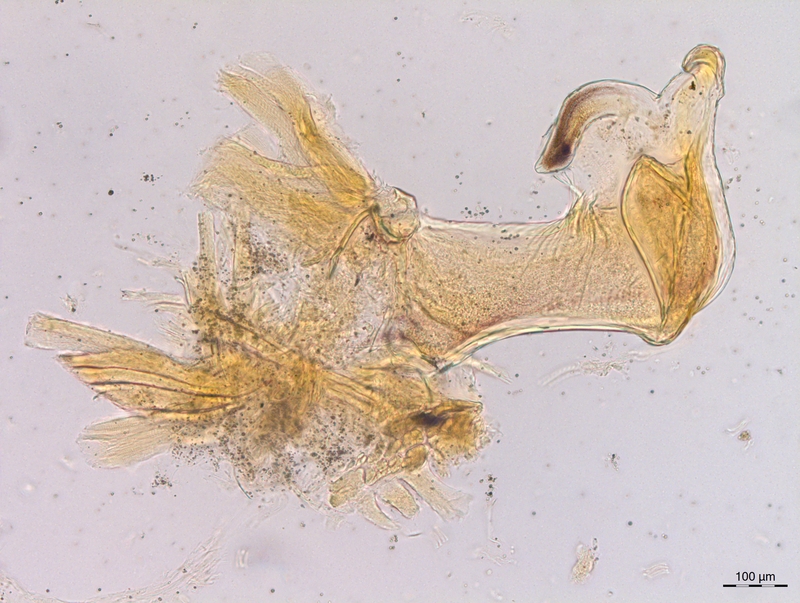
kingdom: Animalia
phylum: Arthropoda
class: Diplopoda
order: Chordeumatida
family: Craspedosomatidae
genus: Craspedosoma
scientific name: Craspedosoma slavum
